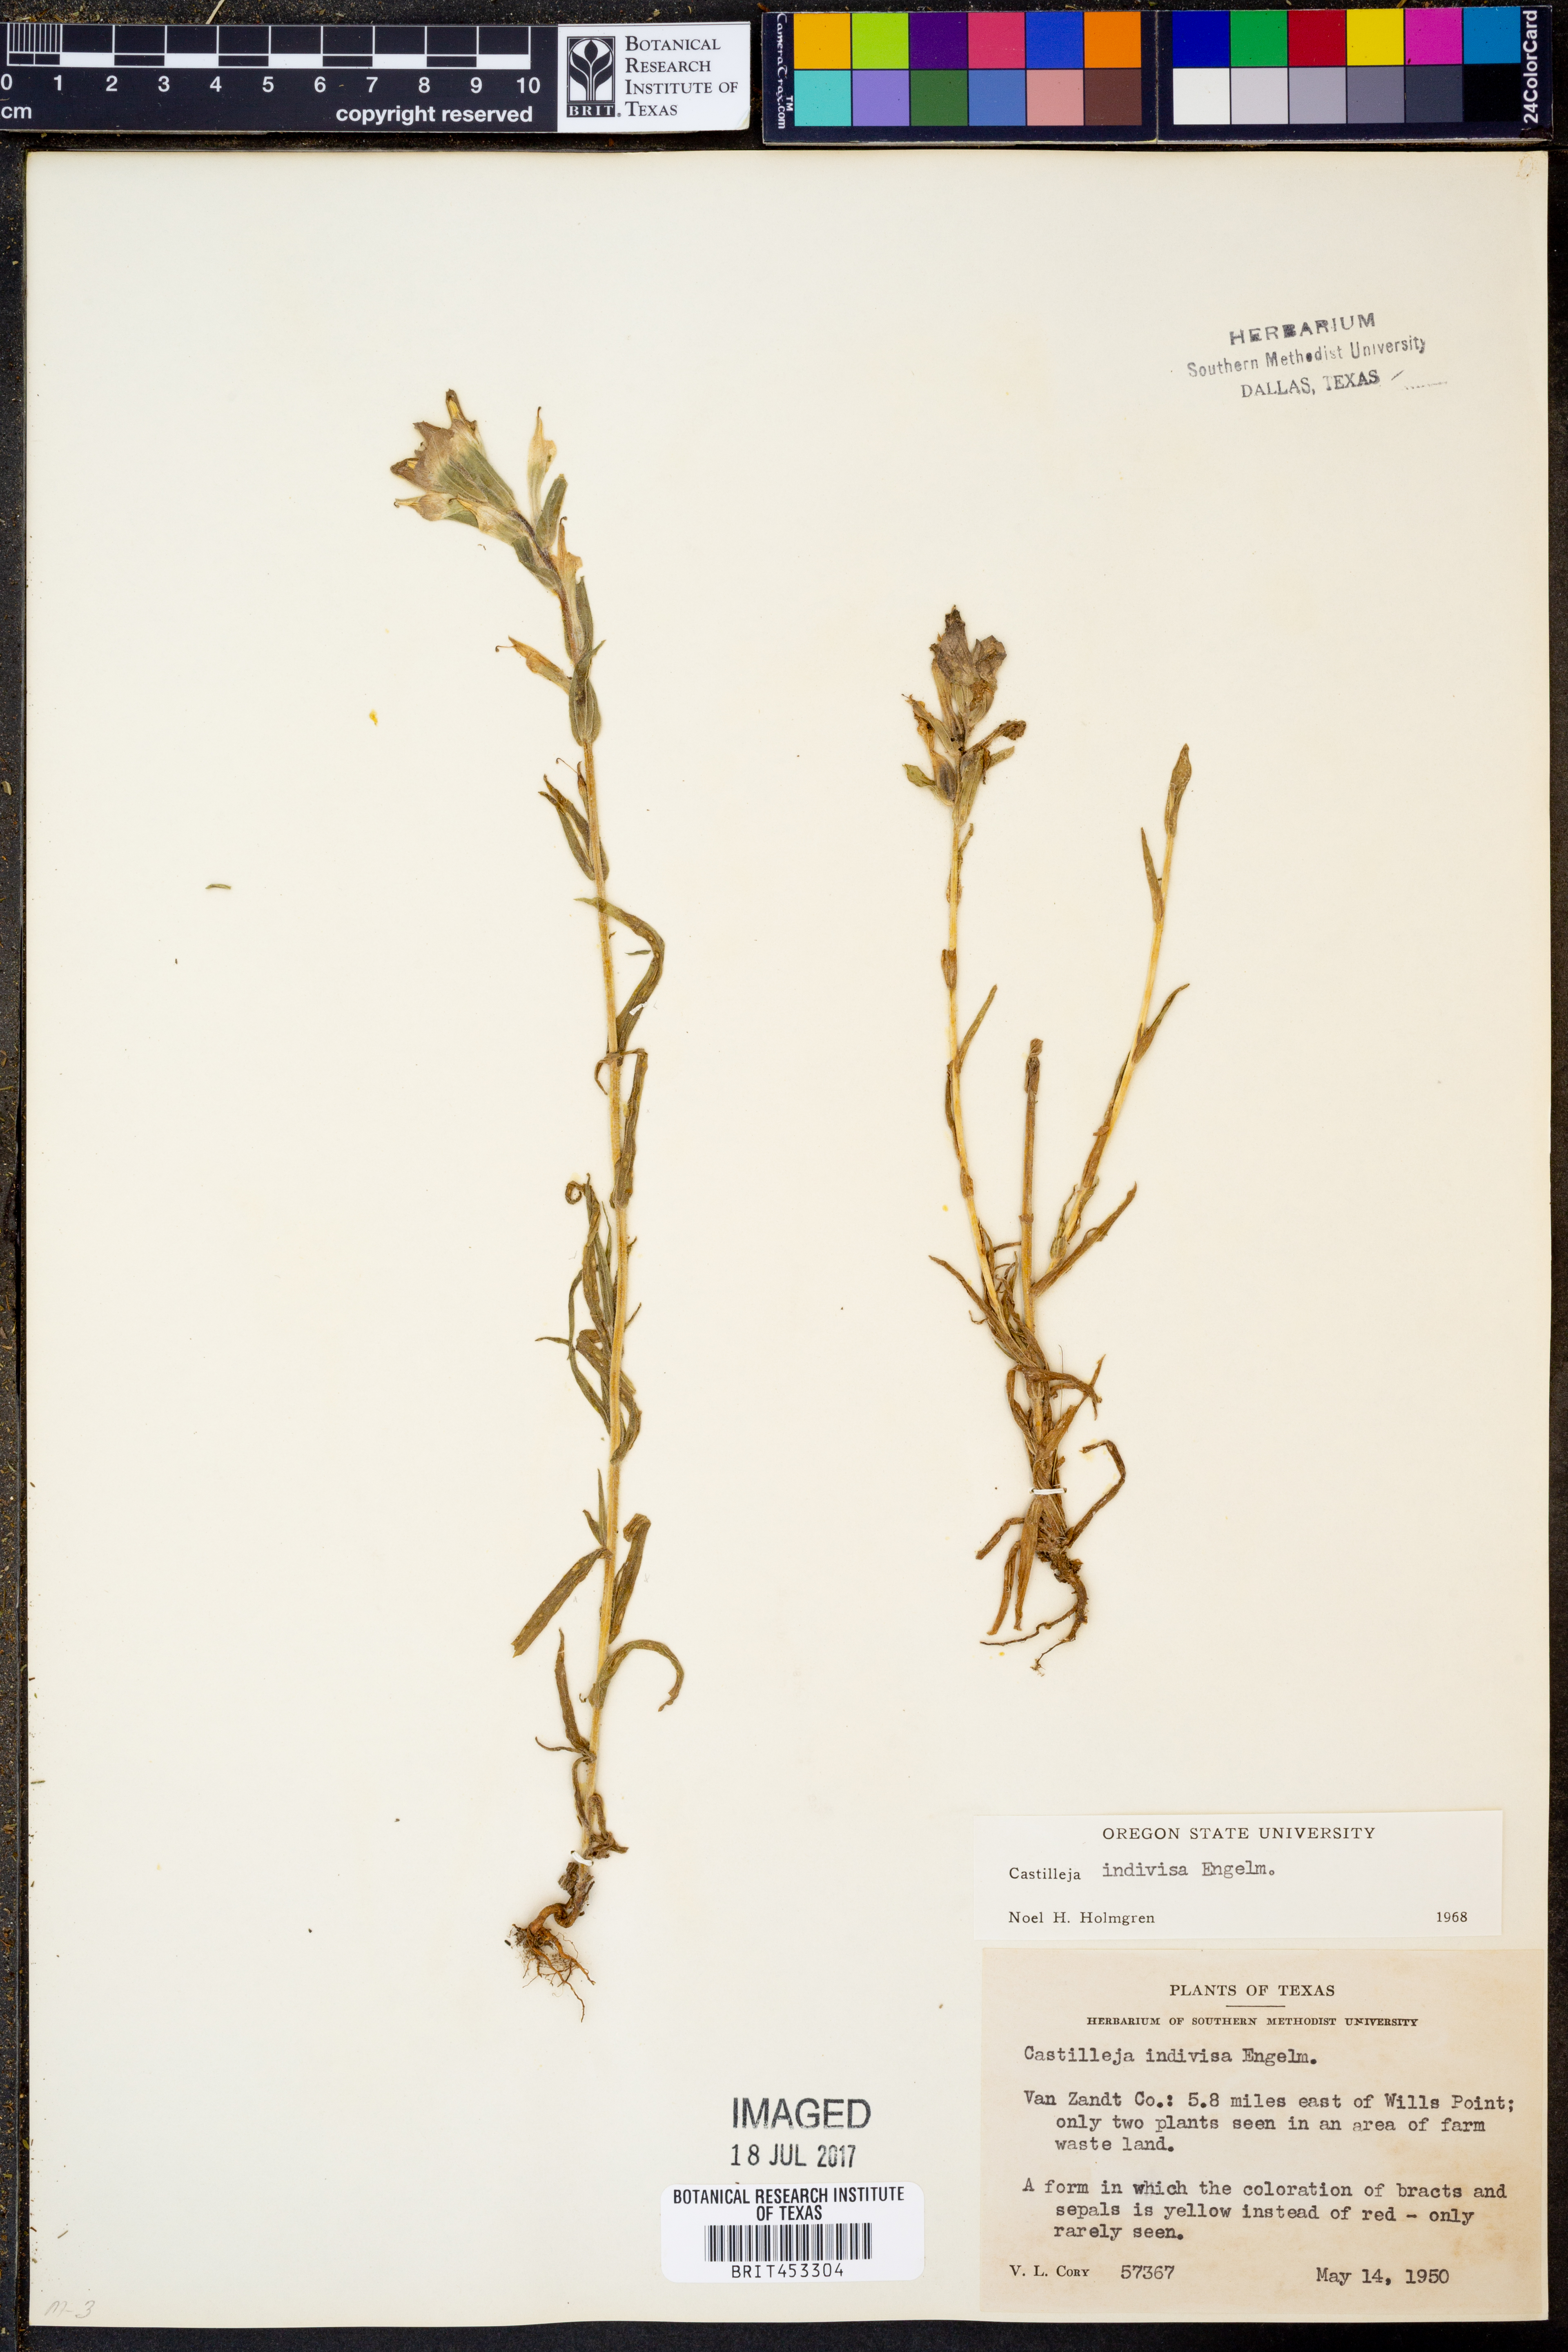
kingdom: Plantae
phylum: Tracheophyta
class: Magnoliopsida
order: Lamiales
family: Orobanchaceae
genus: Castilleja
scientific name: Castilleja indivisa
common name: Texas paintbrush
